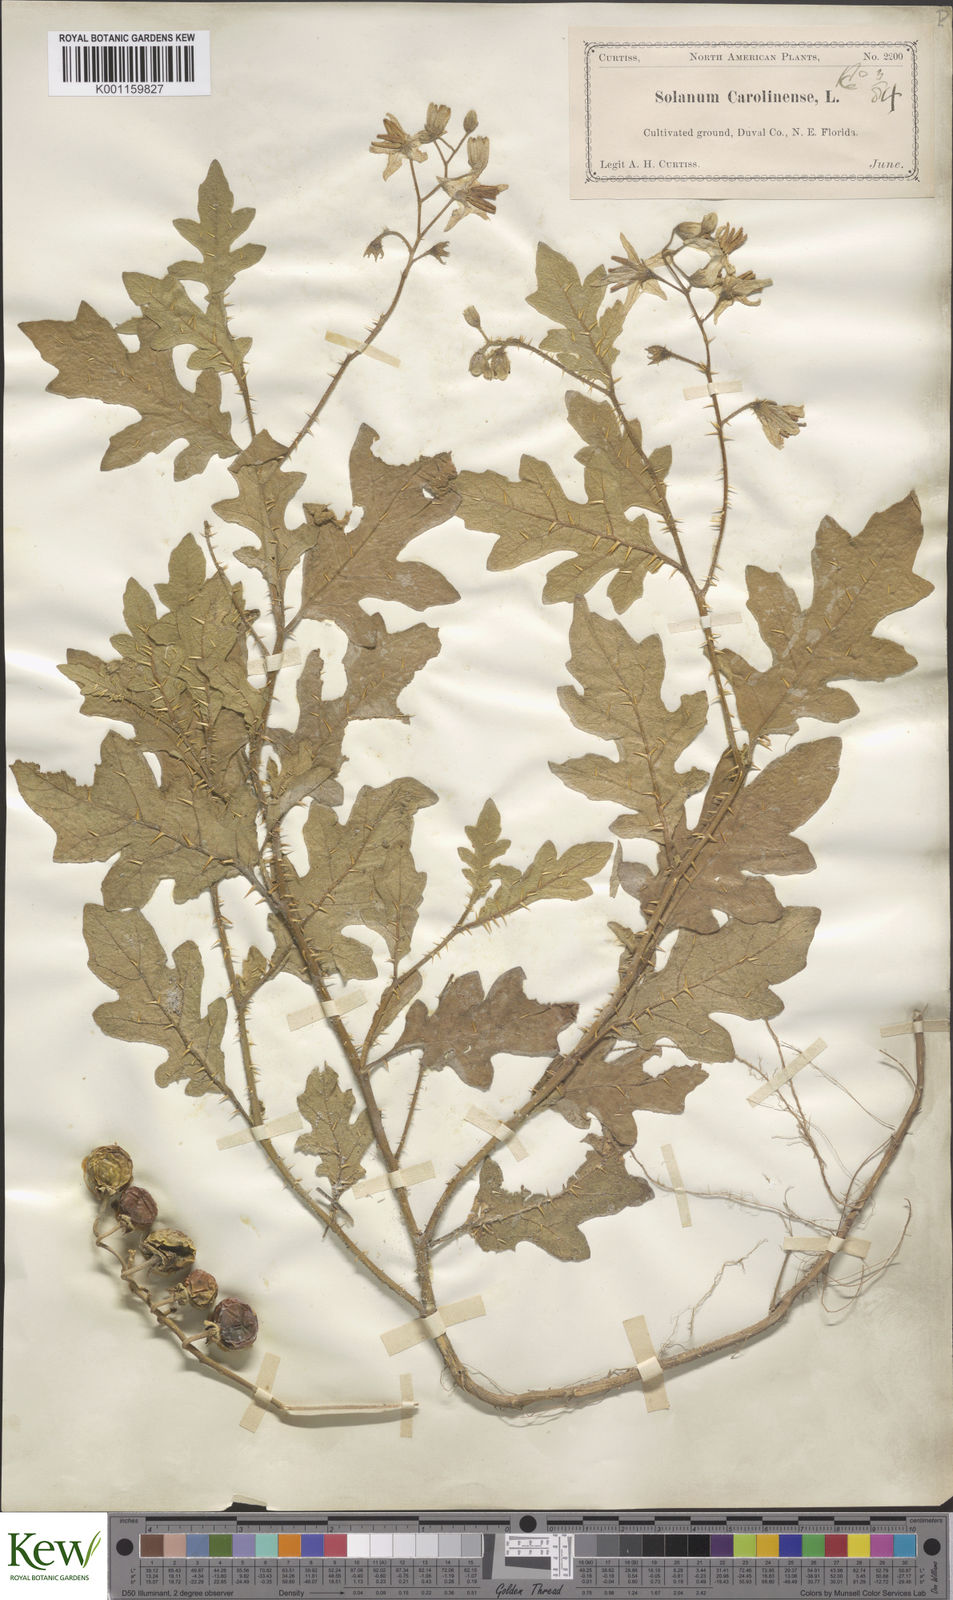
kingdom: Plantae
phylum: Tracheophyta
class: Magnoliopsida
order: Solanales
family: Solanaceae
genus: Solanum
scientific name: Solanum carolinense
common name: Horse-nettle
